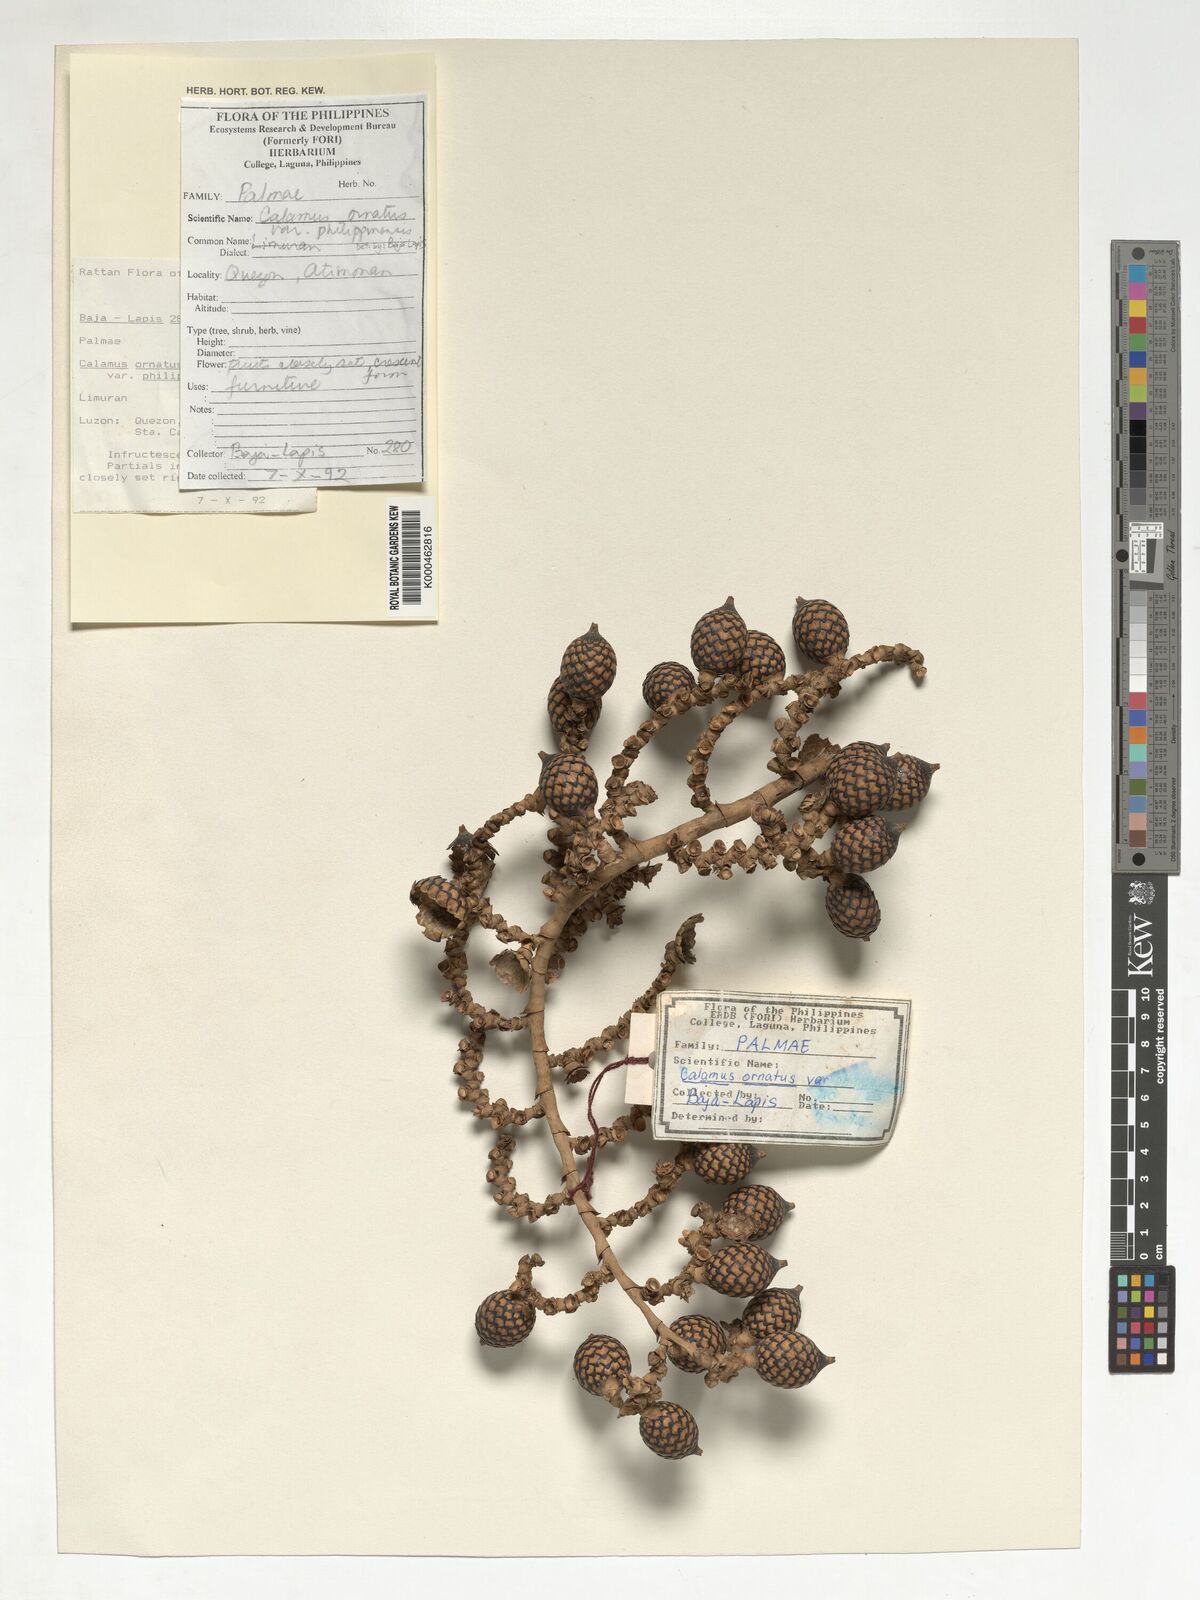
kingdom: Plantae
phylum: Tracheophyta
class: Liliopsida
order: Arecales
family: Arecaceae
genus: Calamus
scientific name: Calamus ornatus
